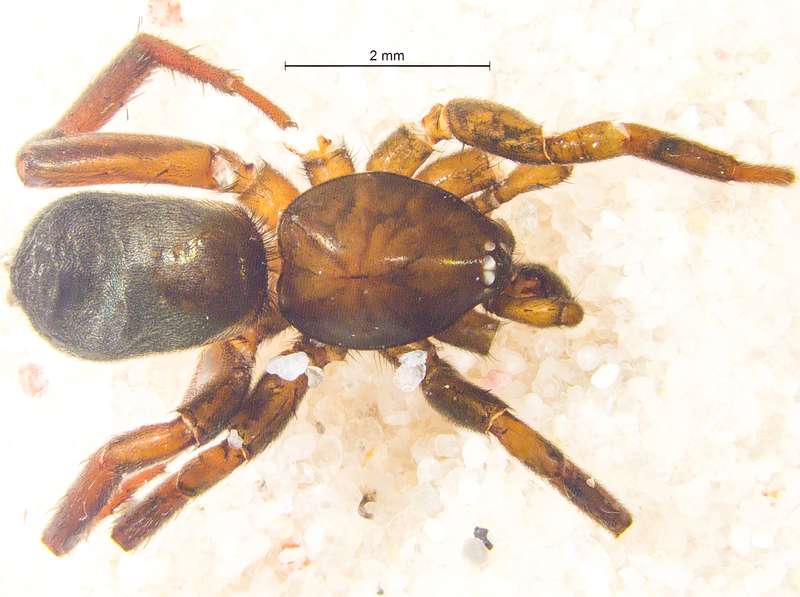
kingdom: Animalia
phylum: Arthropoda
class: Arachnida
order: Araneae
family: Gnaphosidae
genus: Drassyllus
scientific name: Drassyllus lutetianus
